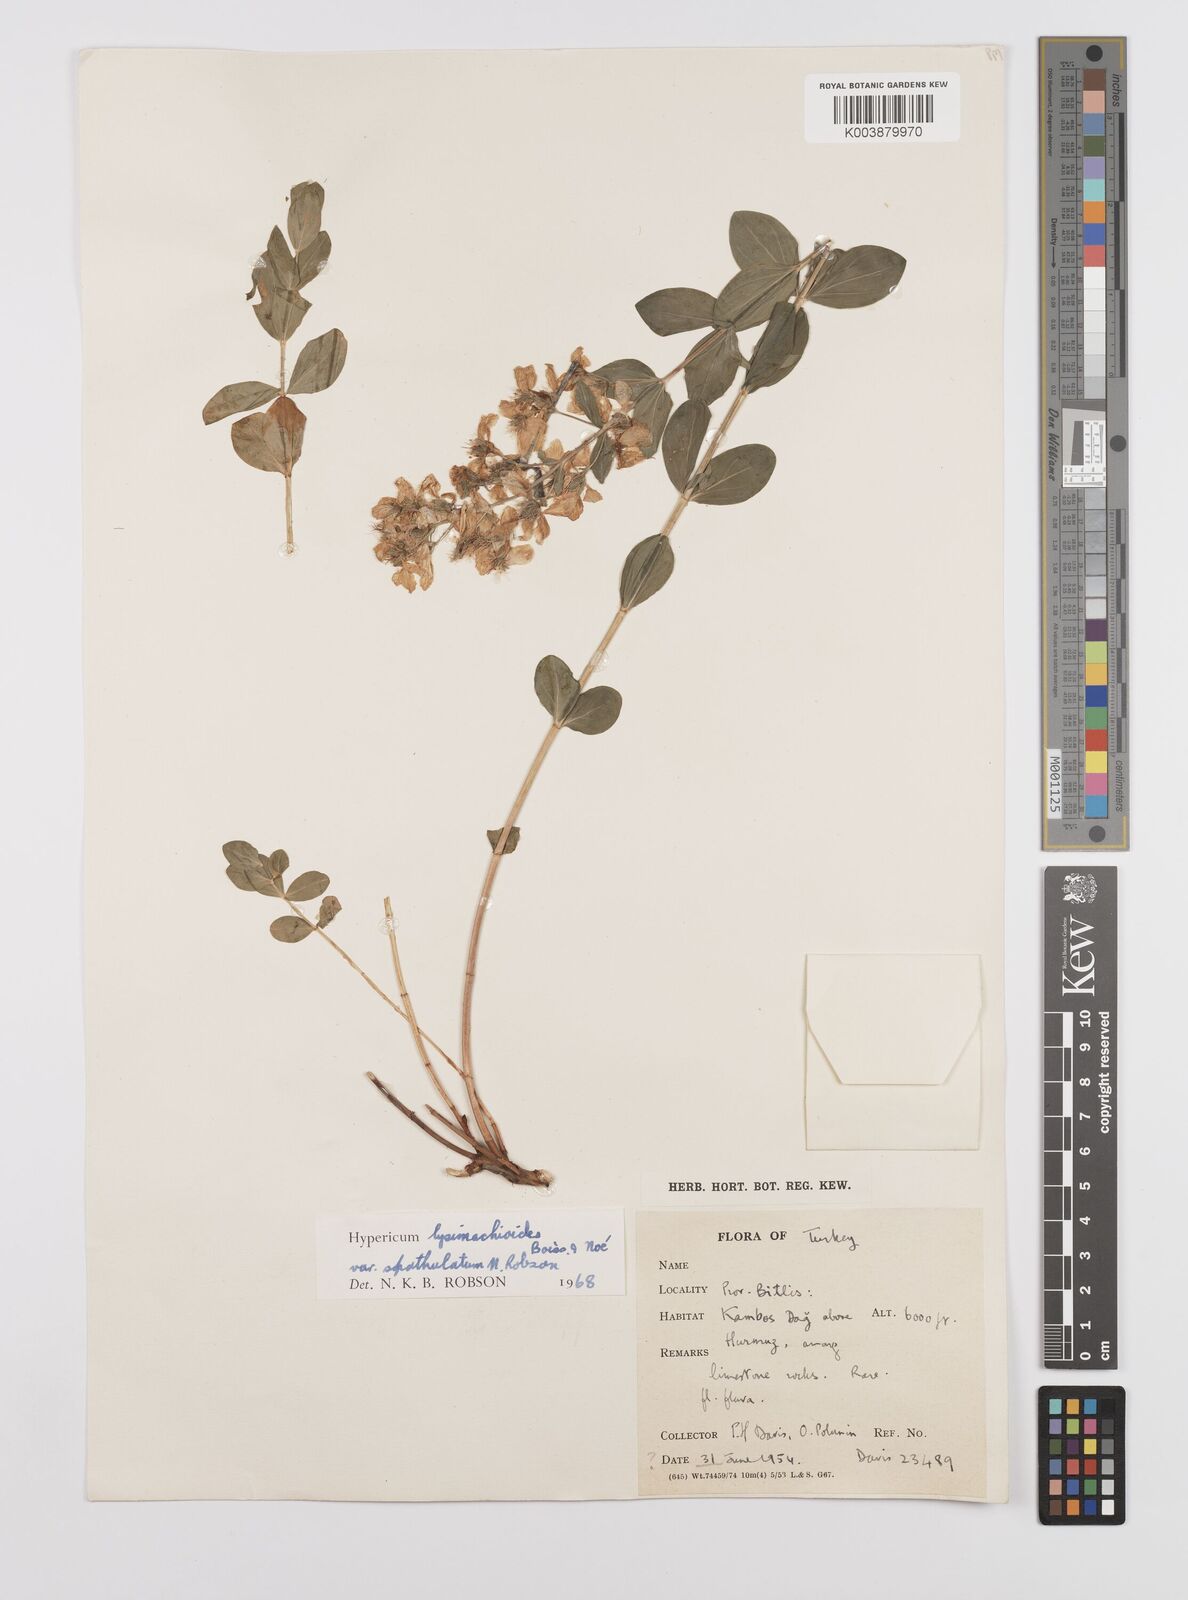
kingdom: Plantae
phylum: Tracheophyta
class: Magnoliopsida
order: Malpighiales
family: Hypericaceae
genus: Hypericum
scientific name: Hypericum lysimachioides
